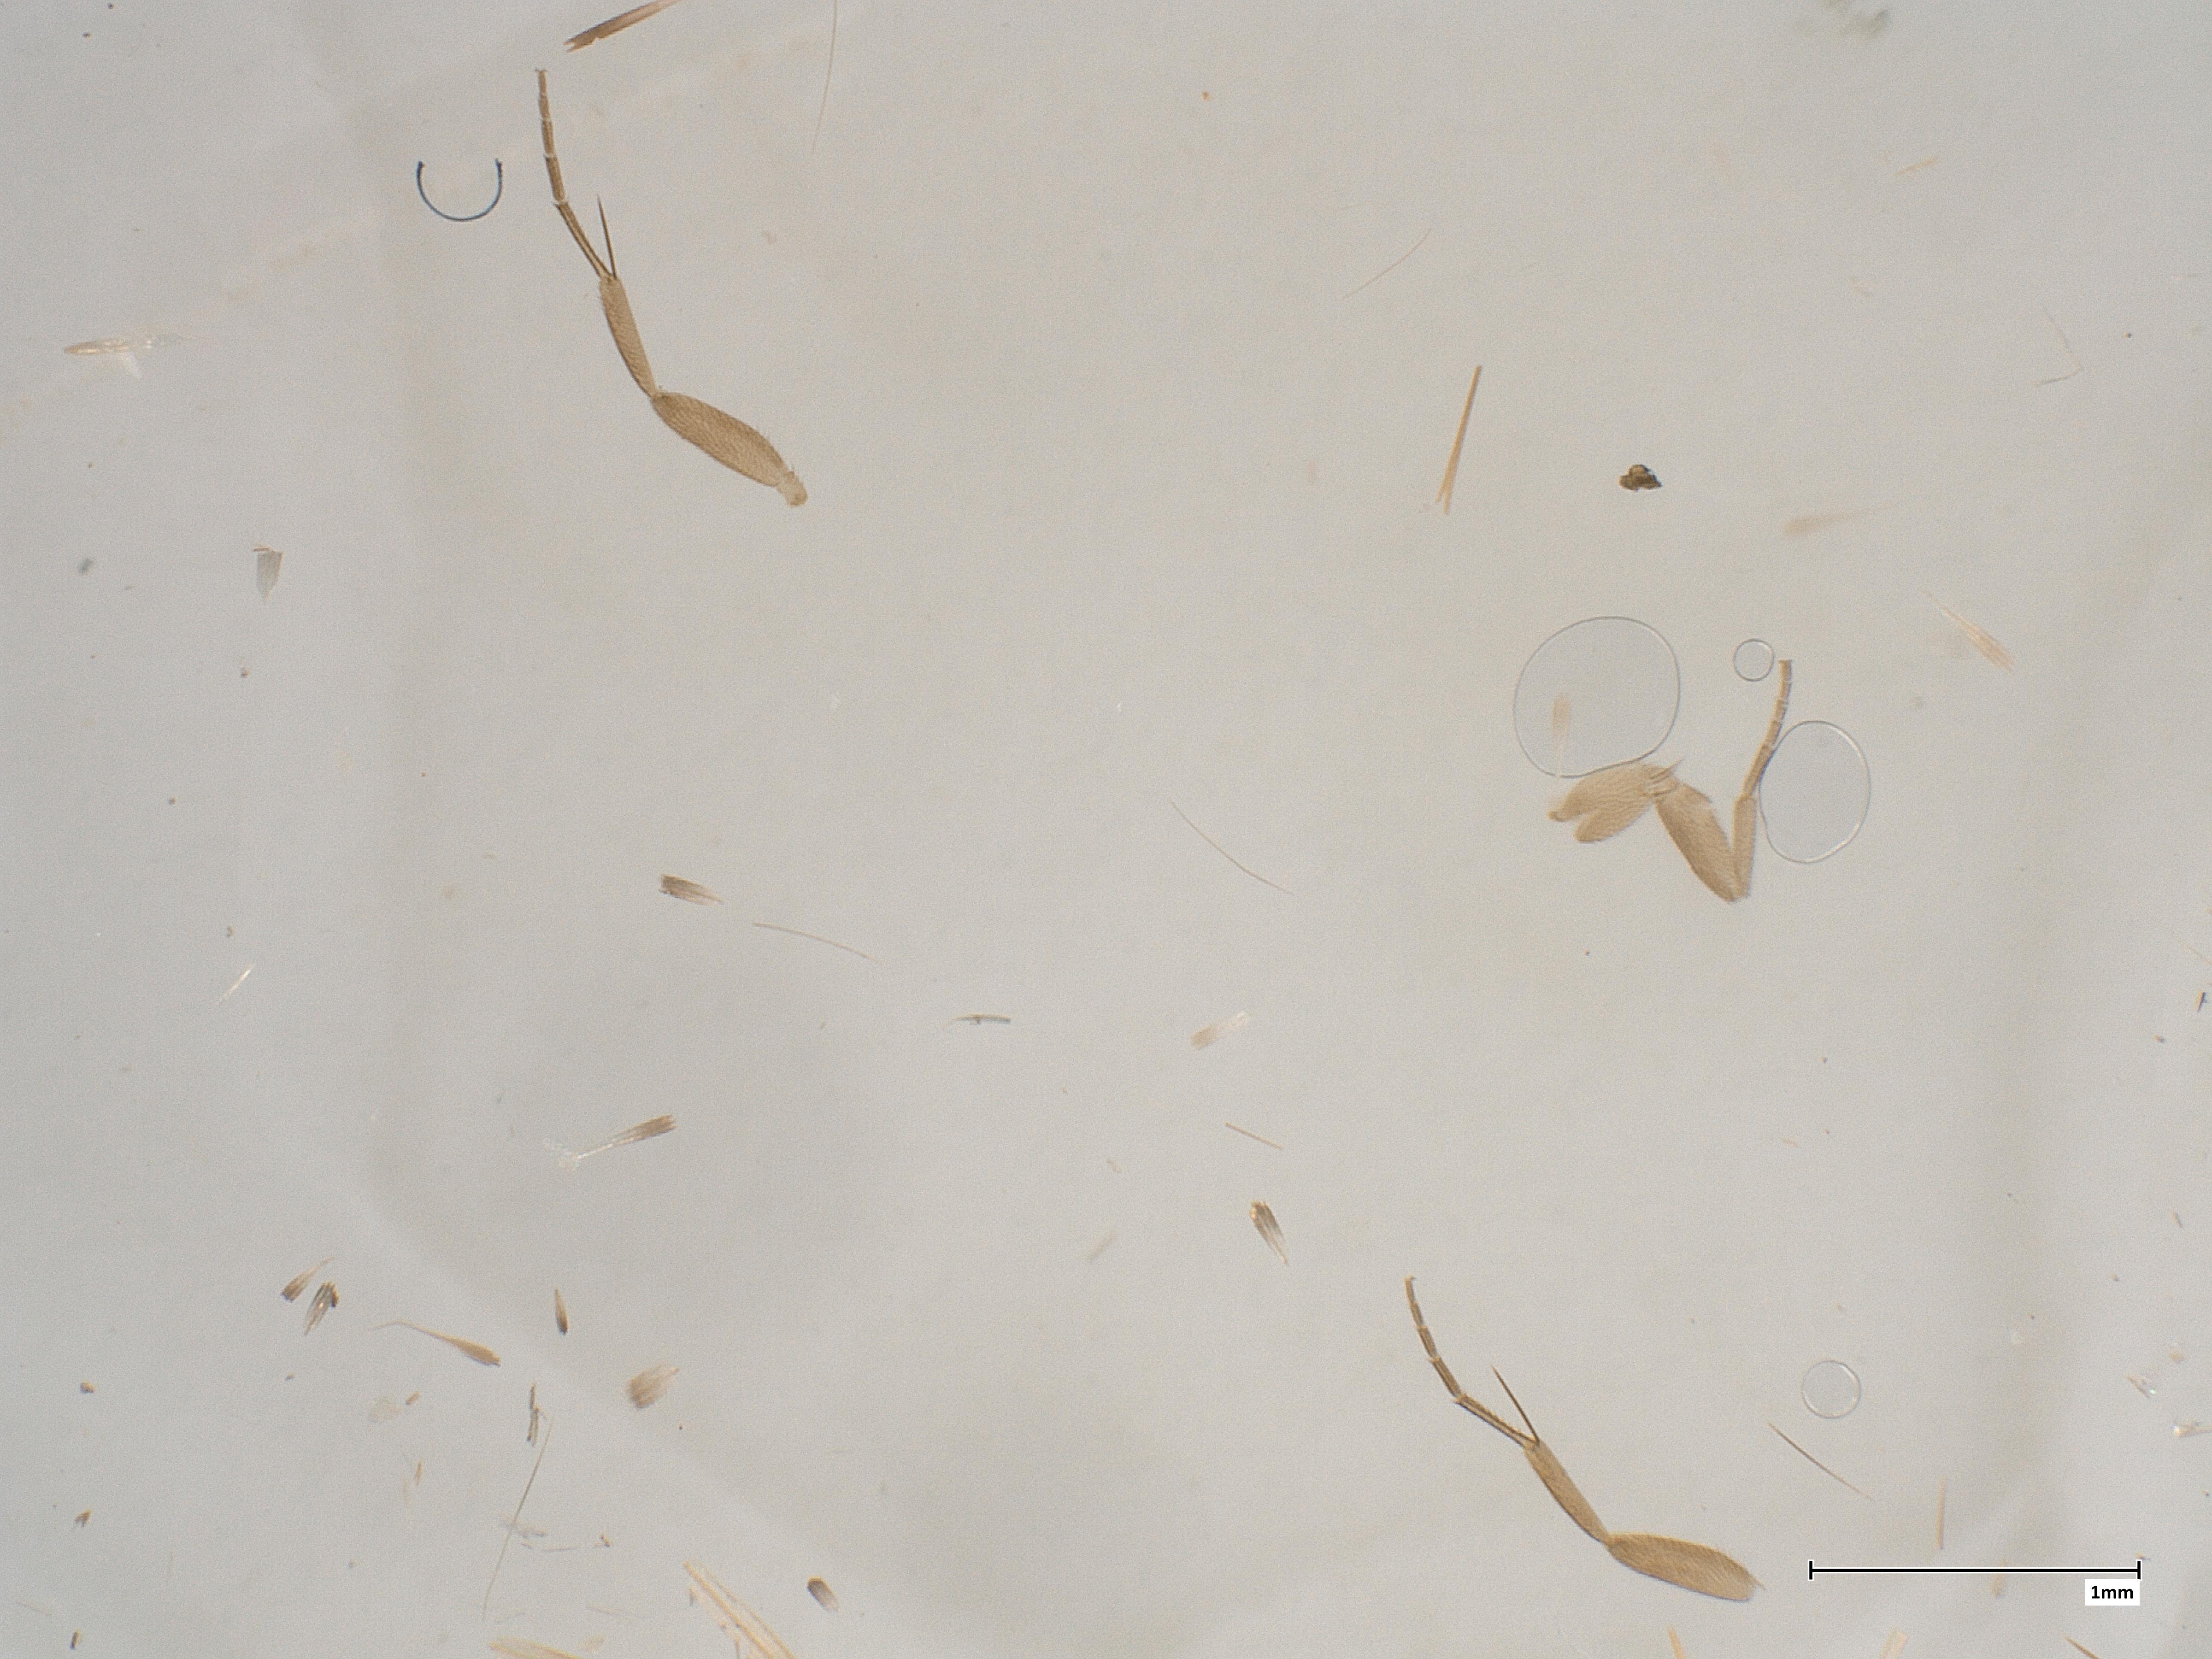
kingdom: Animalia
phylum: Arthropoda
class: Insecta
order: Diptera
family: Phoridae
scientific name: Phoridae
